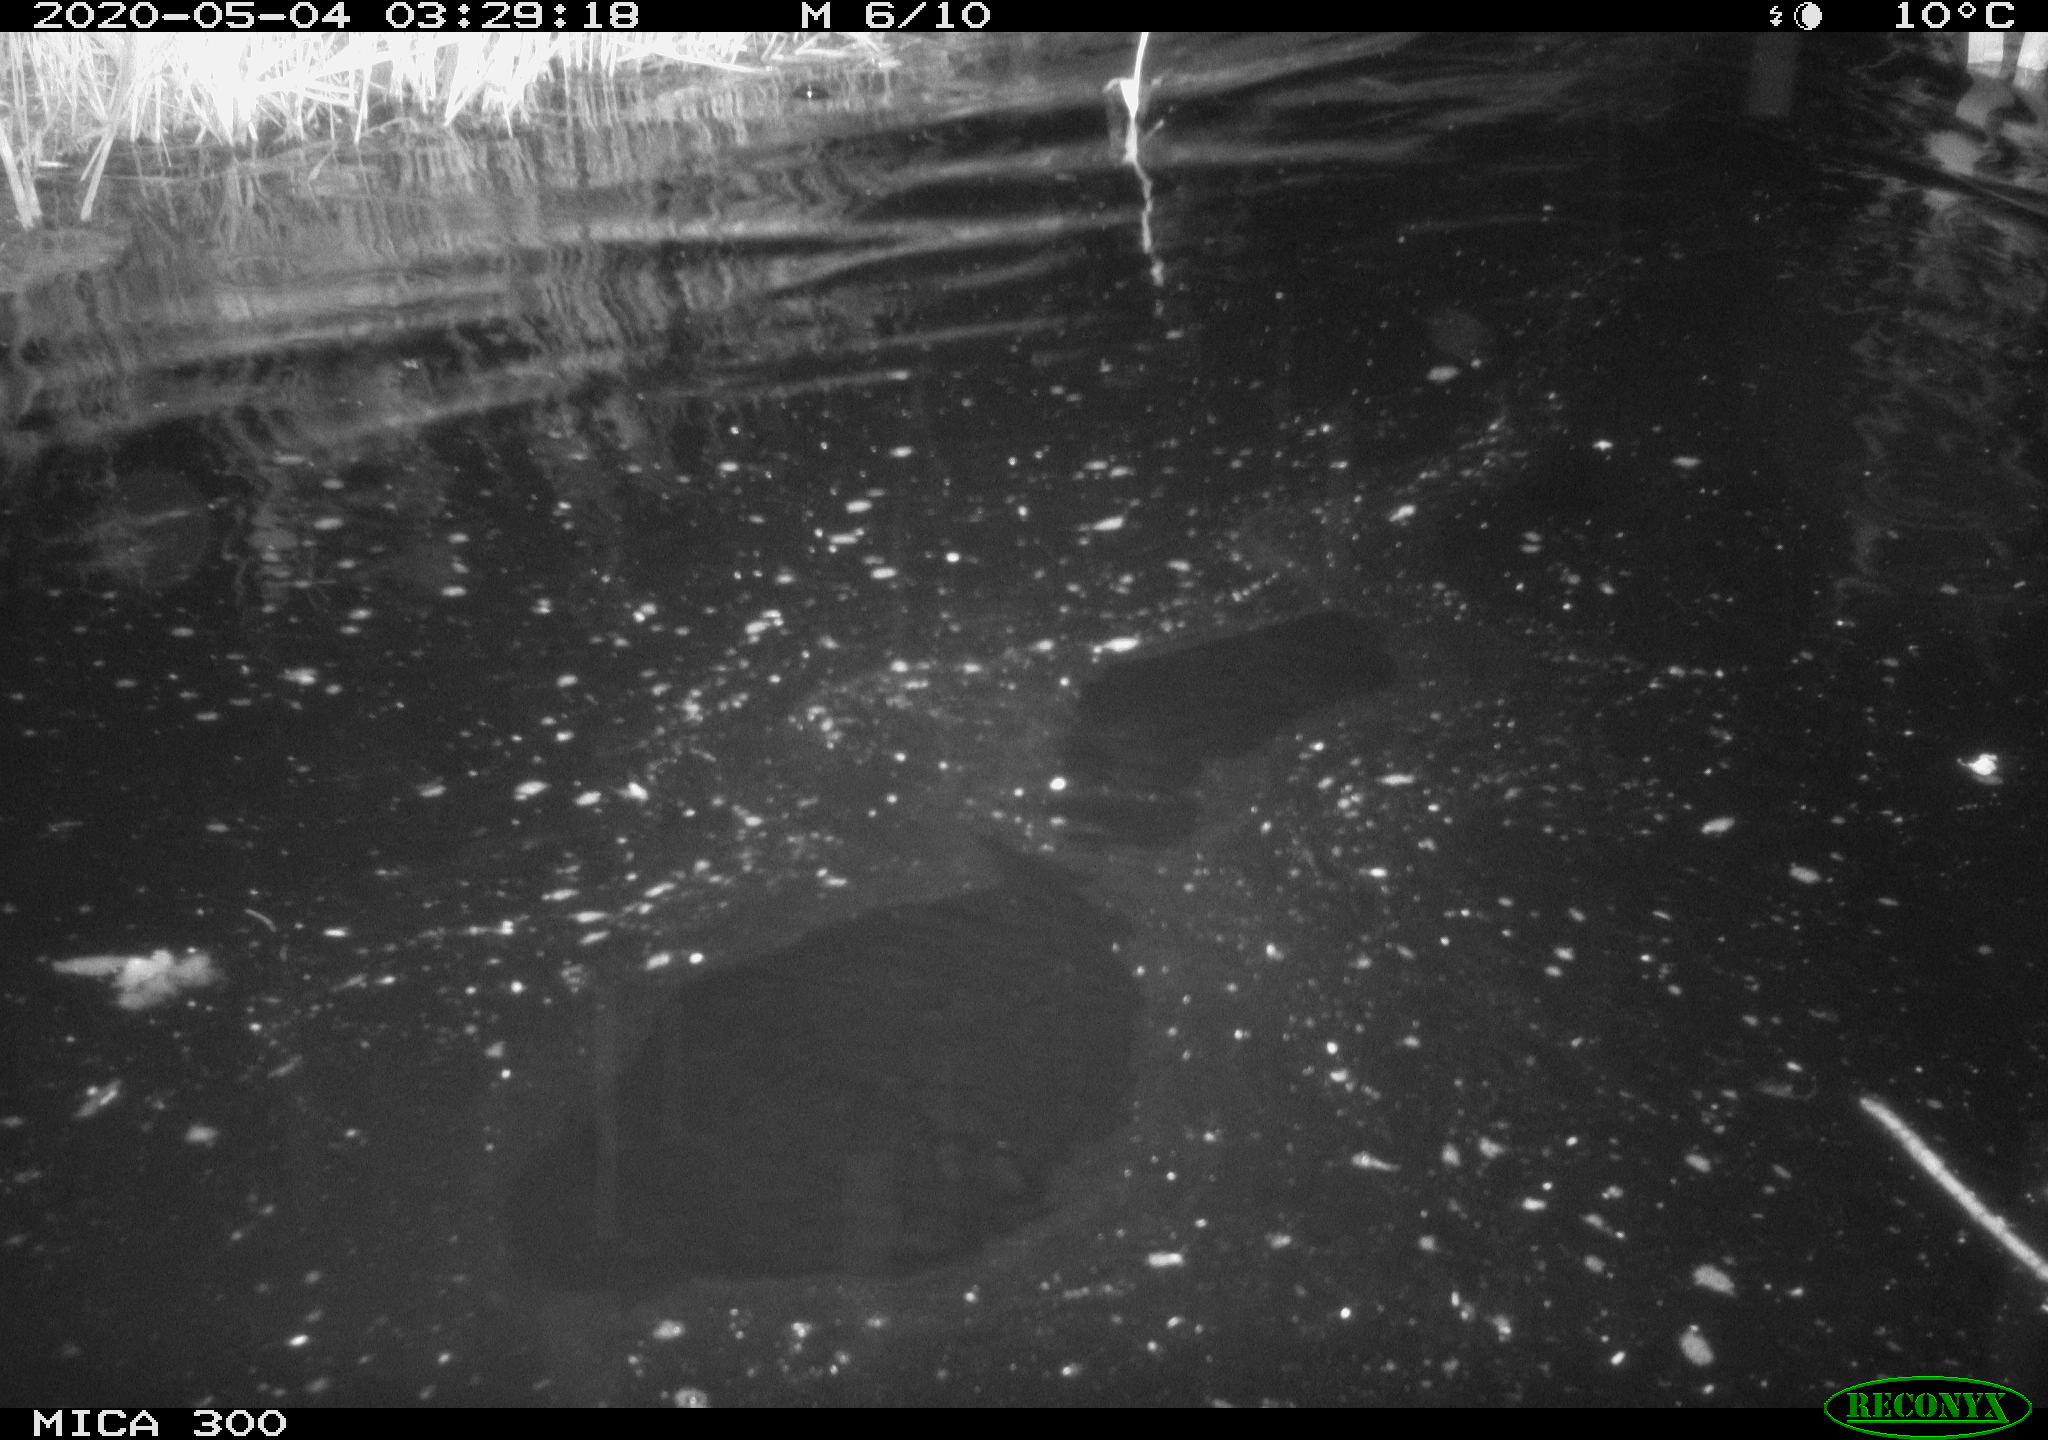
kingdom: Animalia
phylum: Chordata
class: Mammalia
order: Rodentia
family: Castoridae
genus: Castor
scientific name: Castor fiber
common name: Eurasian beaver
